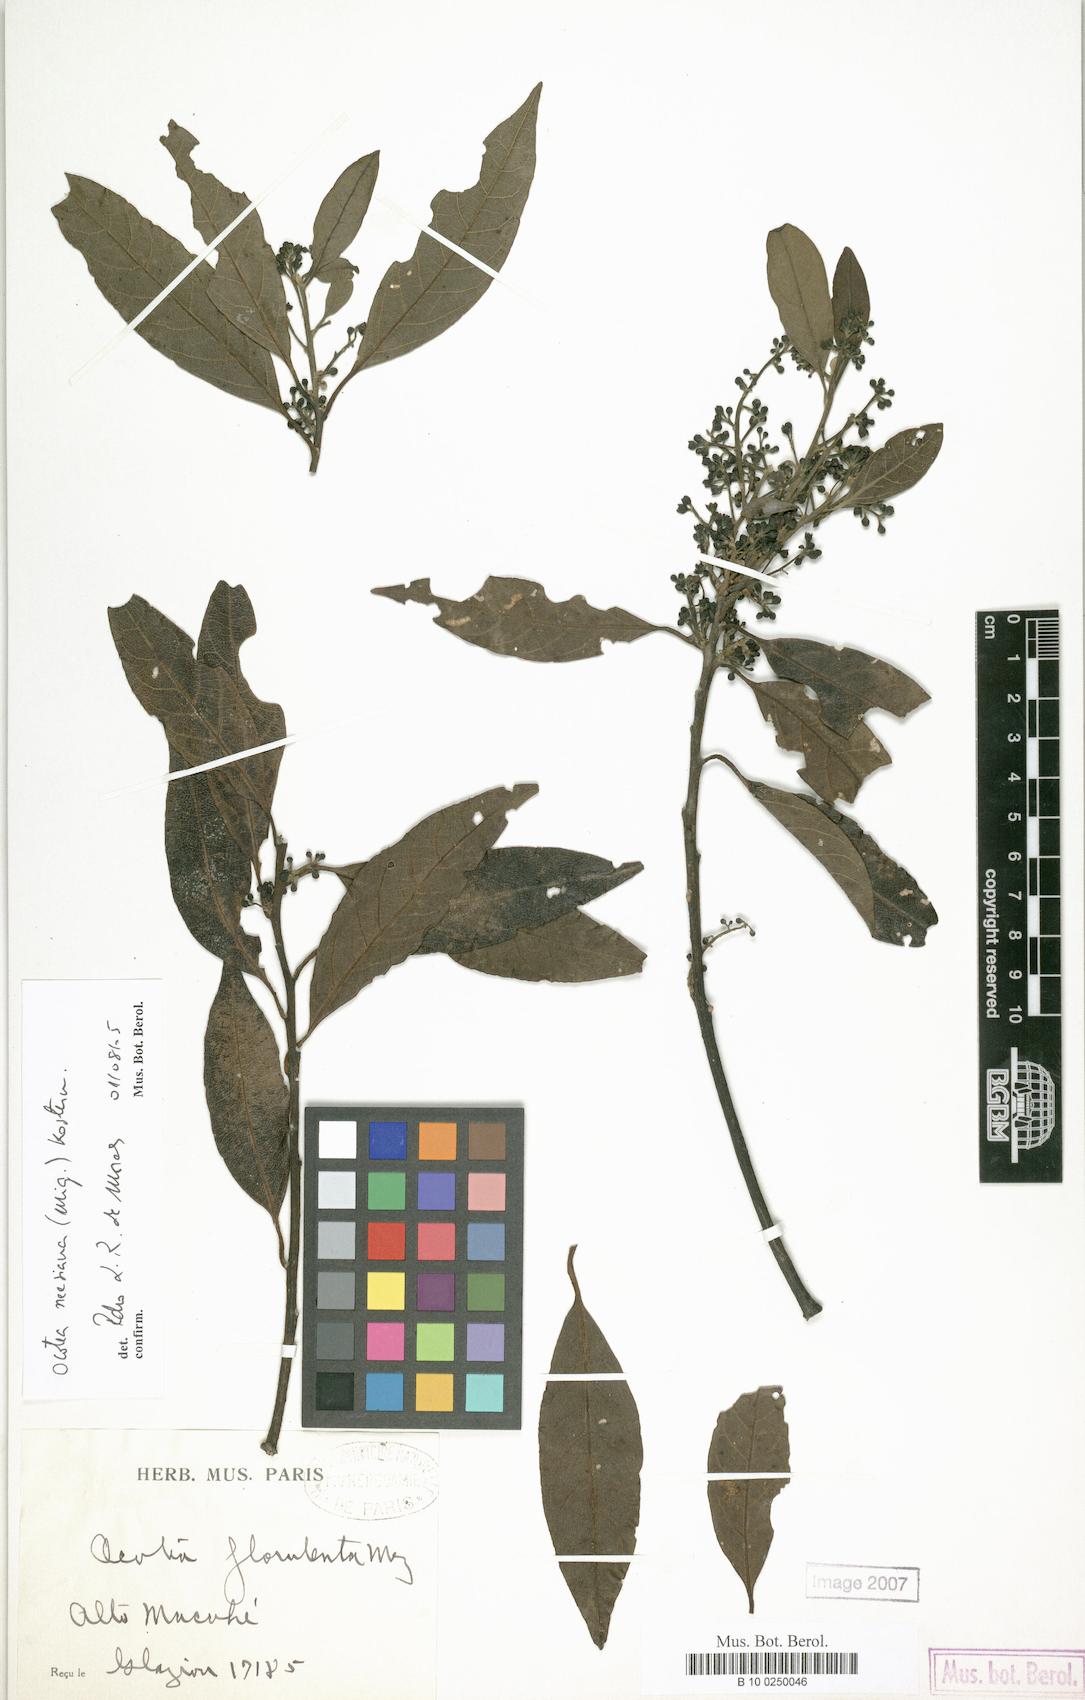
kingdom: Plantae
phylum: Tracheophyta
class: Magnoliopsida
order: Laurales
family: Lauraceae
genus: Ocotea
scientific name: Ocotea neesiana
